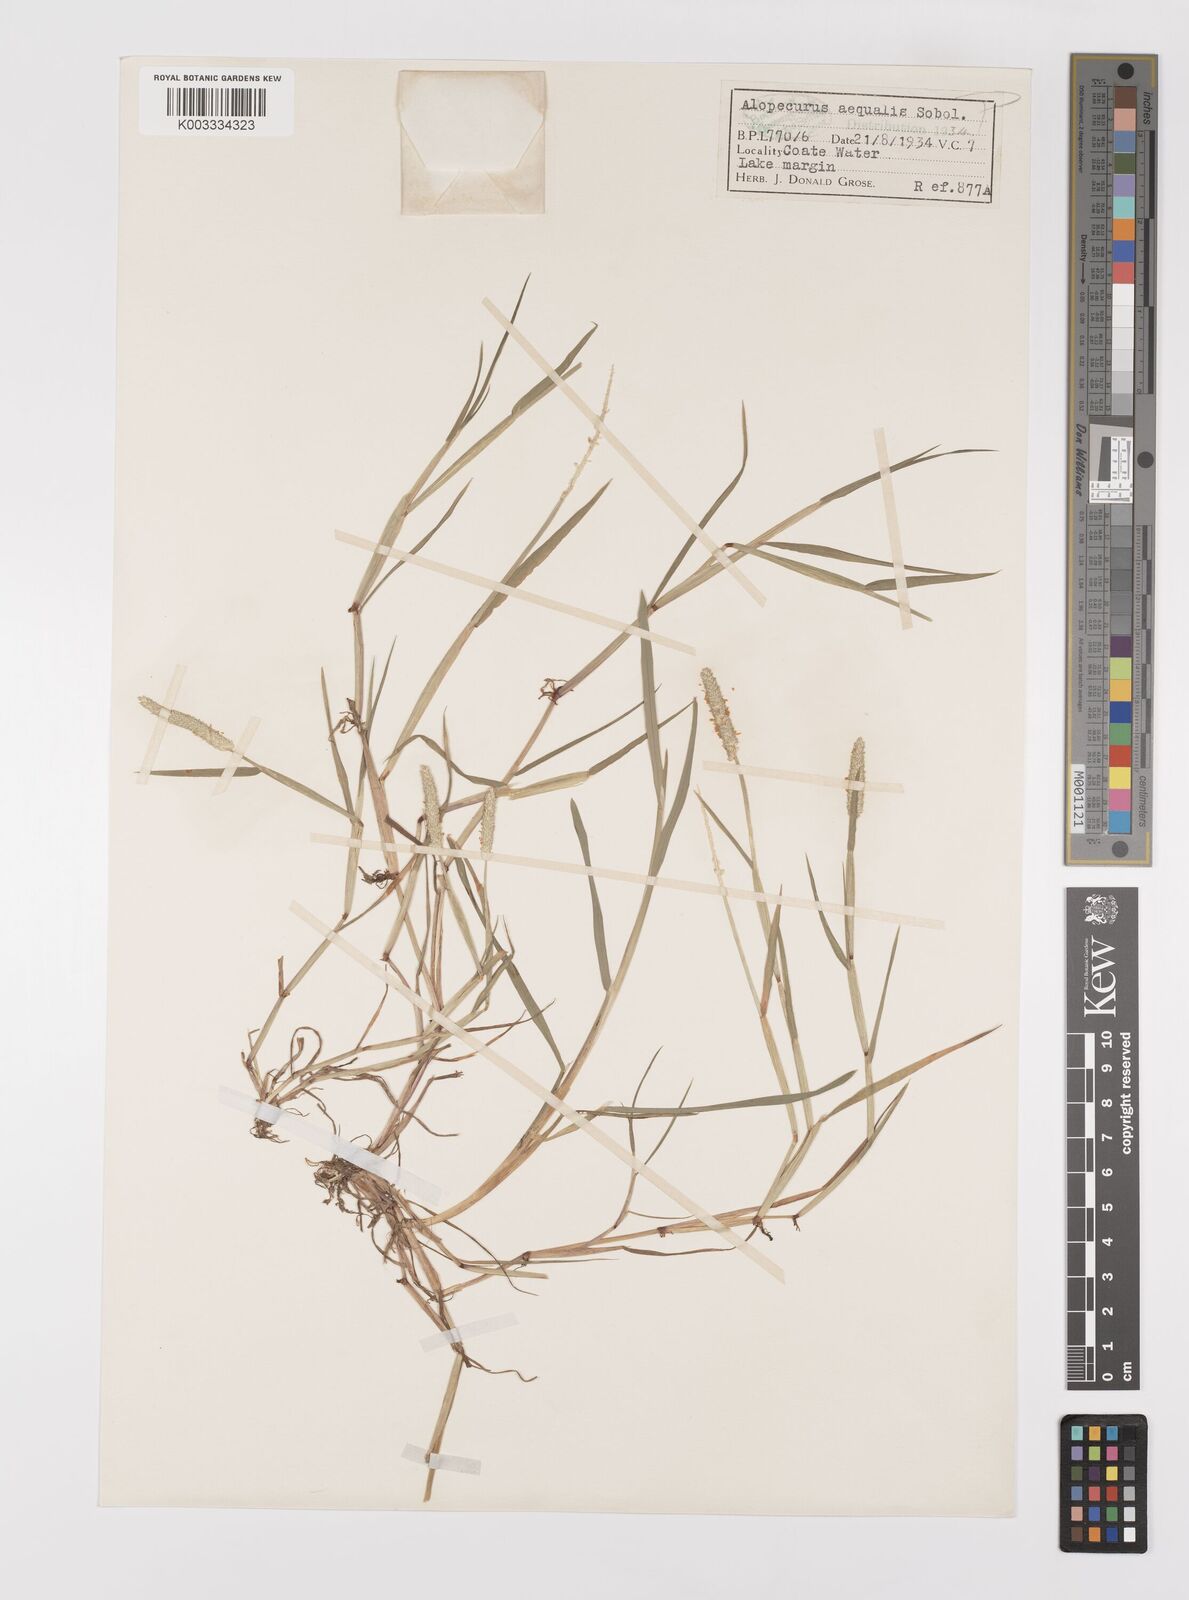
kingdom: Plantae
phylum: Tracheophyta
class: Liliopsida
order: Poales
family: Poaceae
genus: Alopecurus
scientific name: Alopecurus aequalis
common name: Orange foxtail
